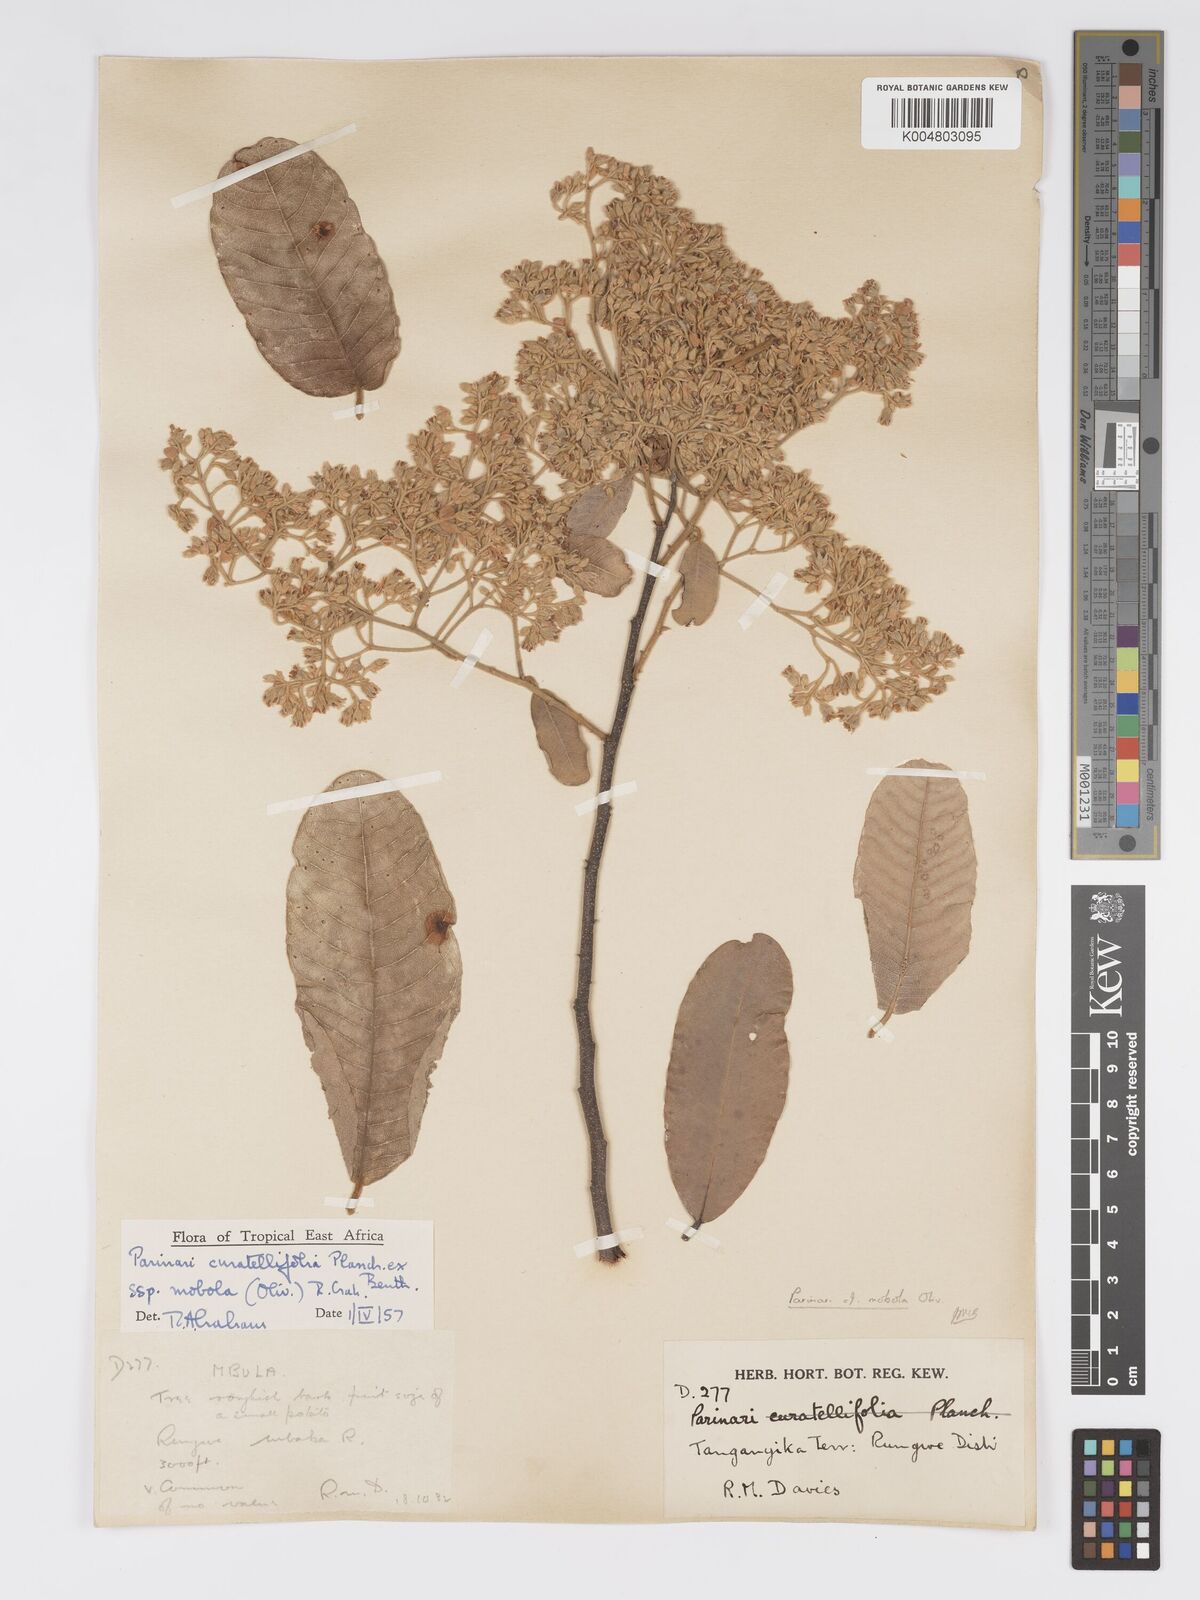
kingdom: Plantae
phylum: Tracheophyta
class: Magnoliopsida
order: Malpighiales
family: Chrysobalanaceae
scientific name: Chrysobalanaceae
